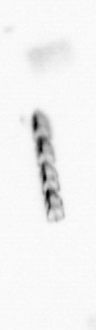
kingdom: Chromista
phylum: Ochrophyta
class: Bacillariophyceae
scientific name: Bacillariophyceae
